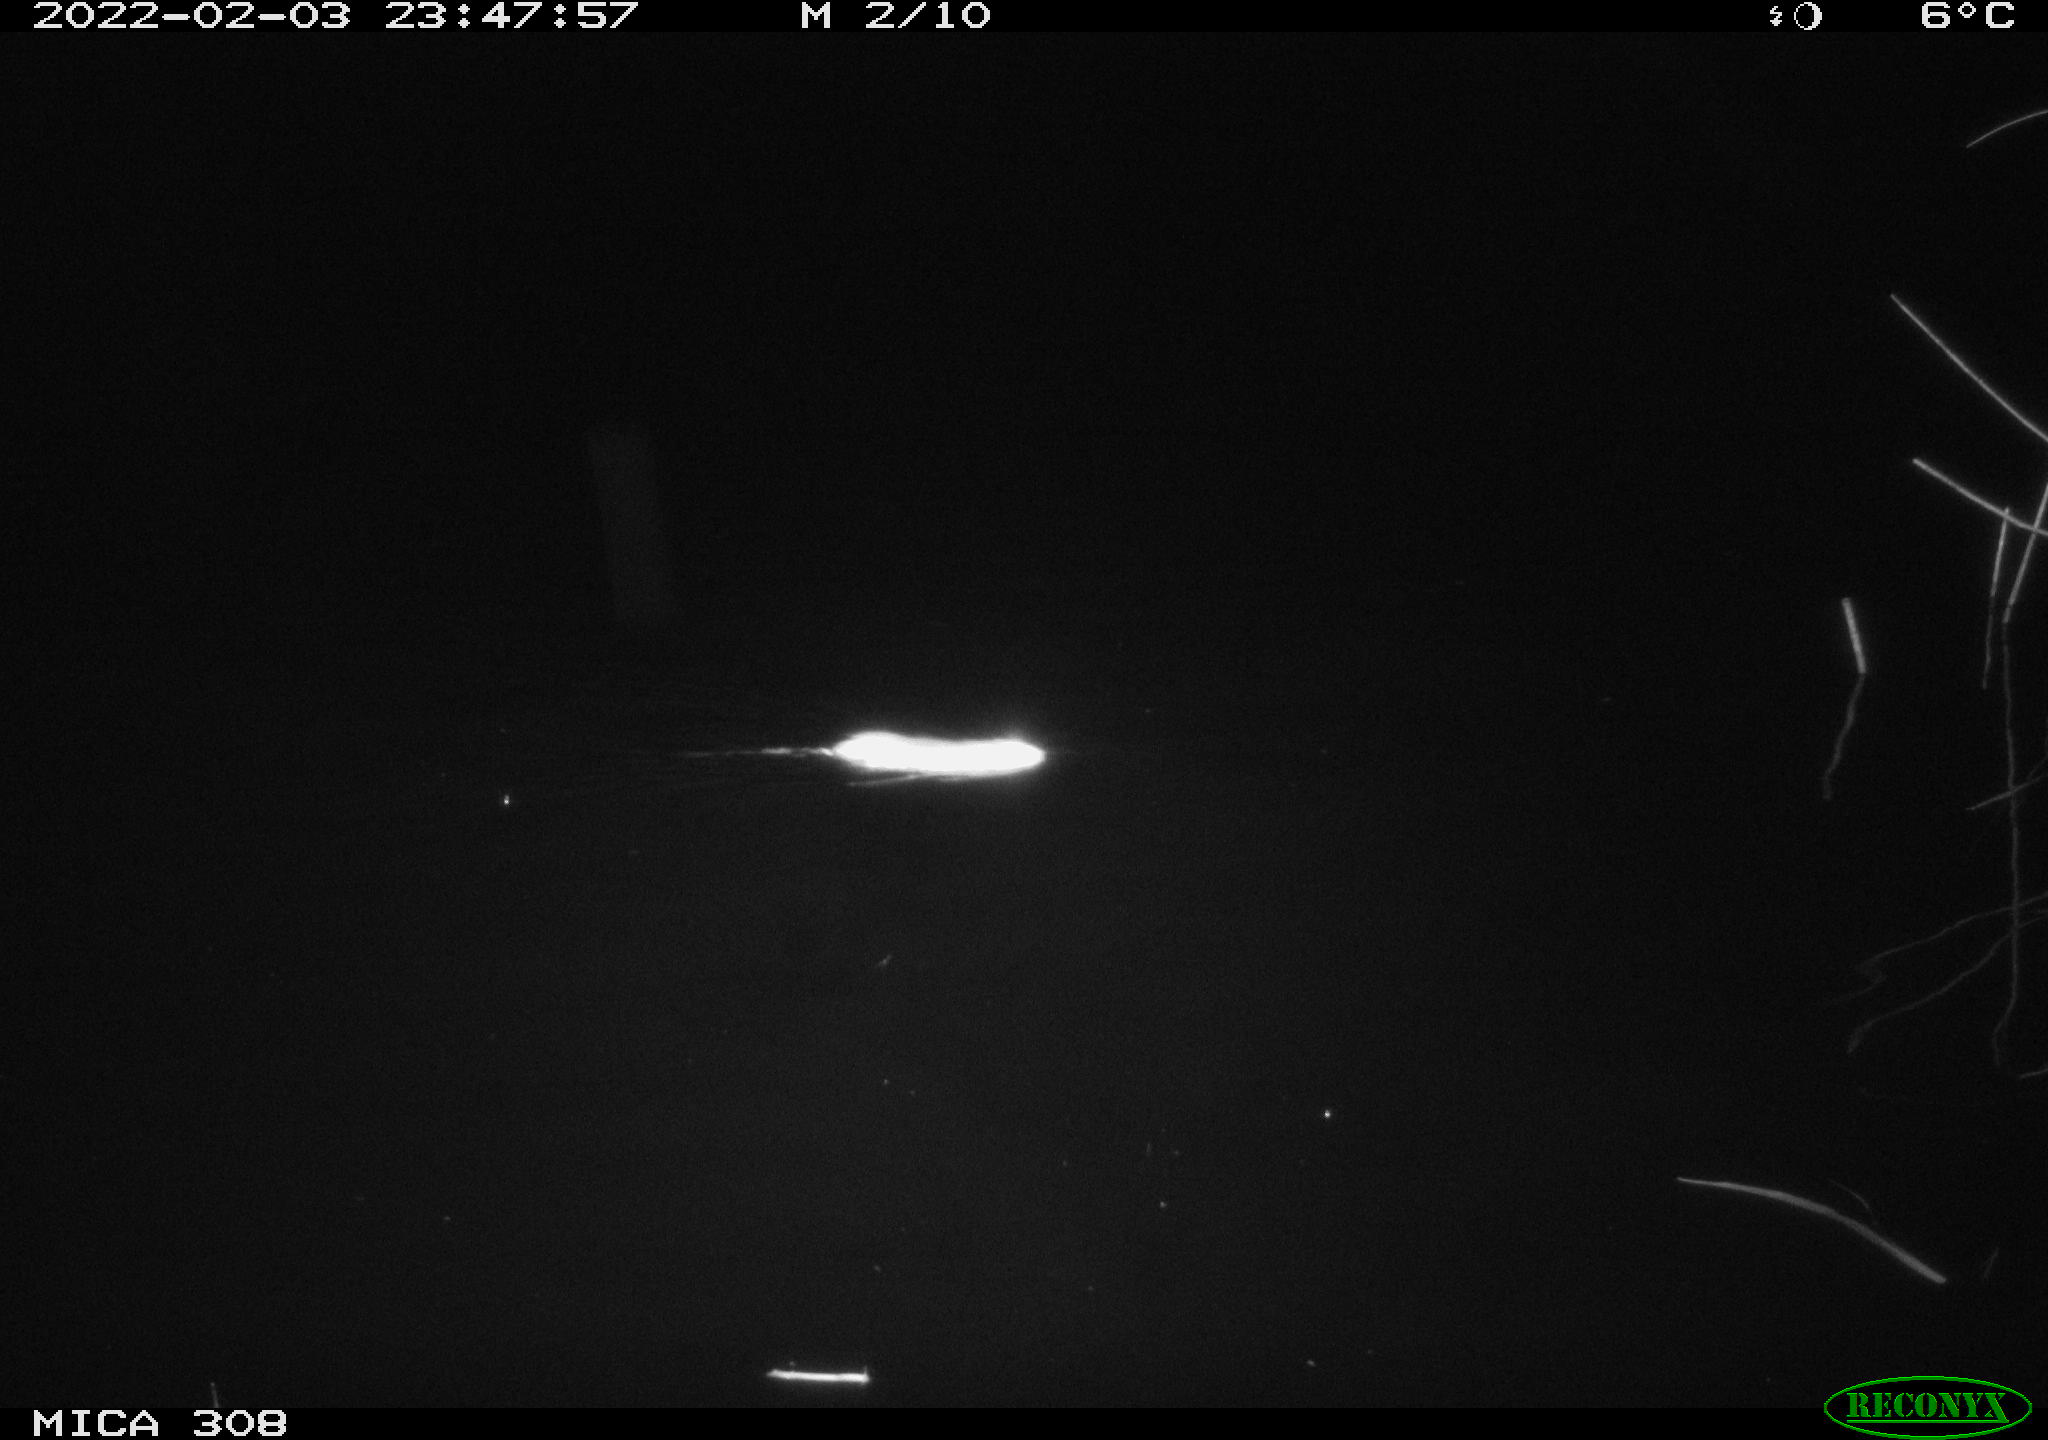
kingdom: Animalia
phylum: Chordata
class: Mammalia
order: Rodentia
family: Muridae
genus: Rattus
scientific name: Rattus norvegicus
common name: Brown rat
